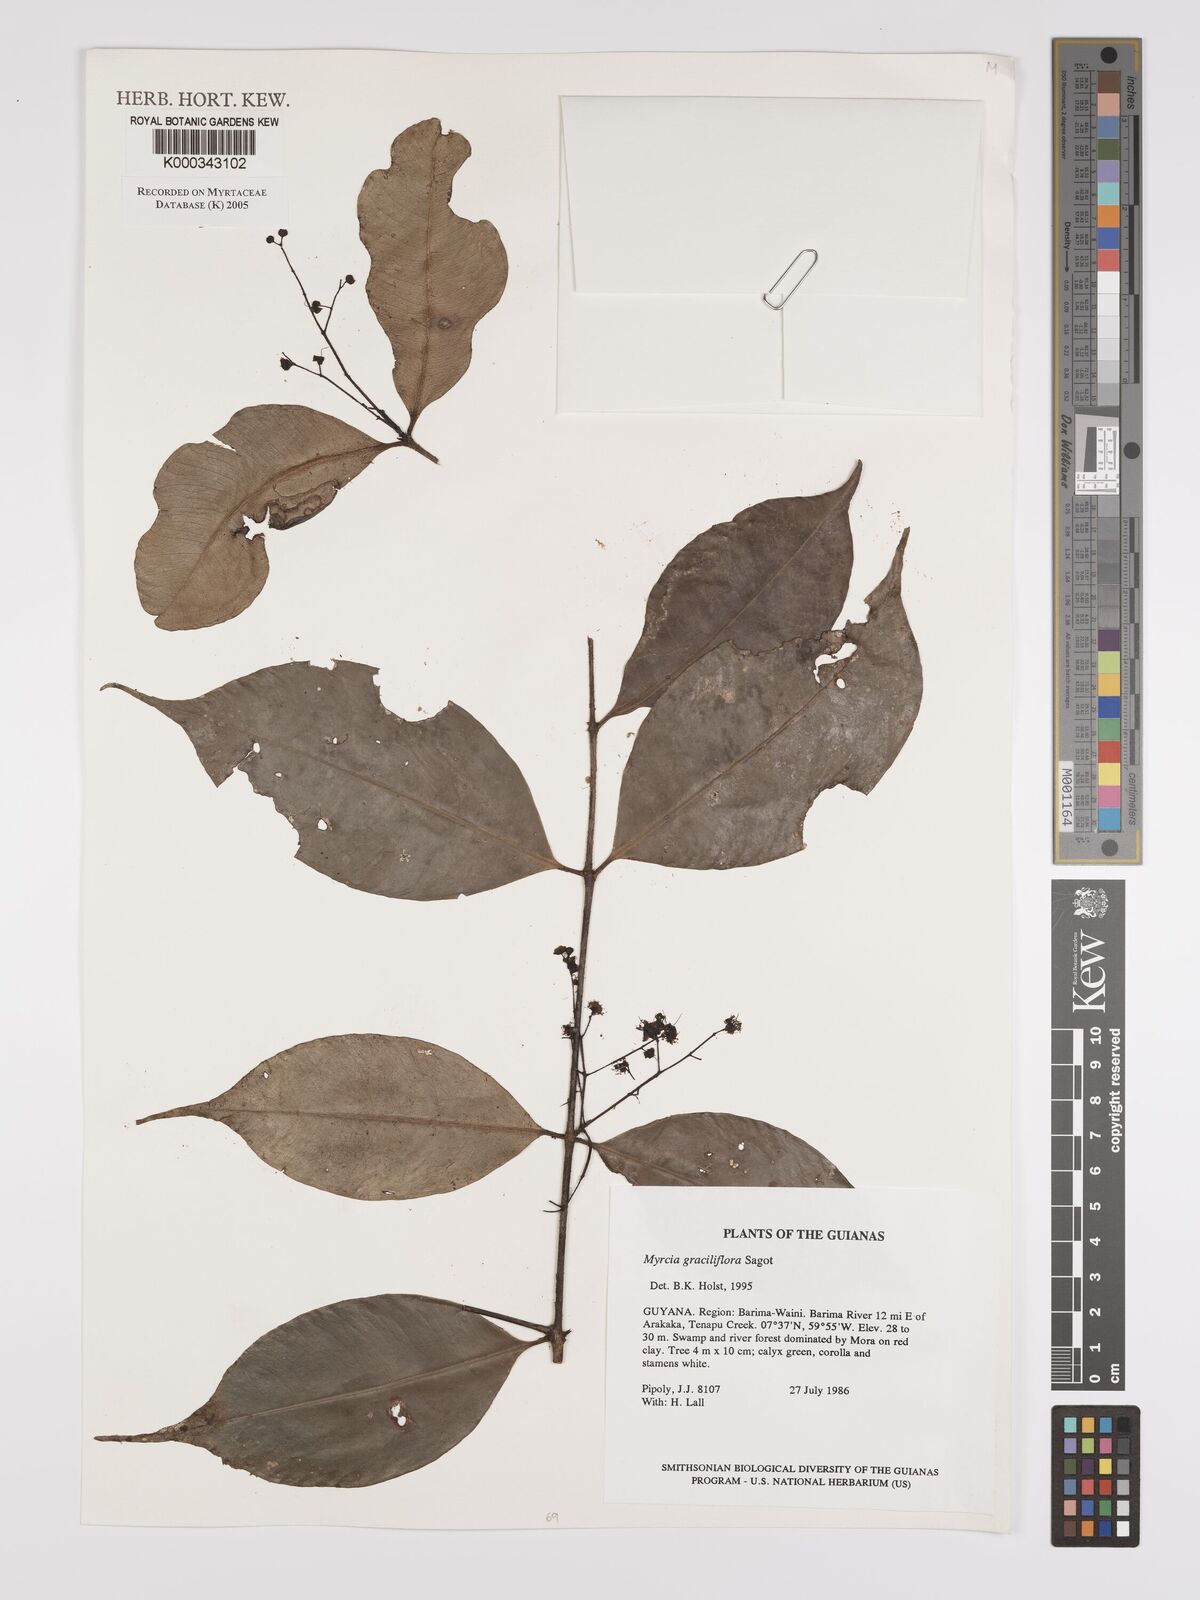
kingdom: Plantae
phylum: Tracheophyta
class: Magnoliopsida
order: Myrtales
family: Myrtaceae
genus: Myrcia
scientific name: Myrcia graciliflora
